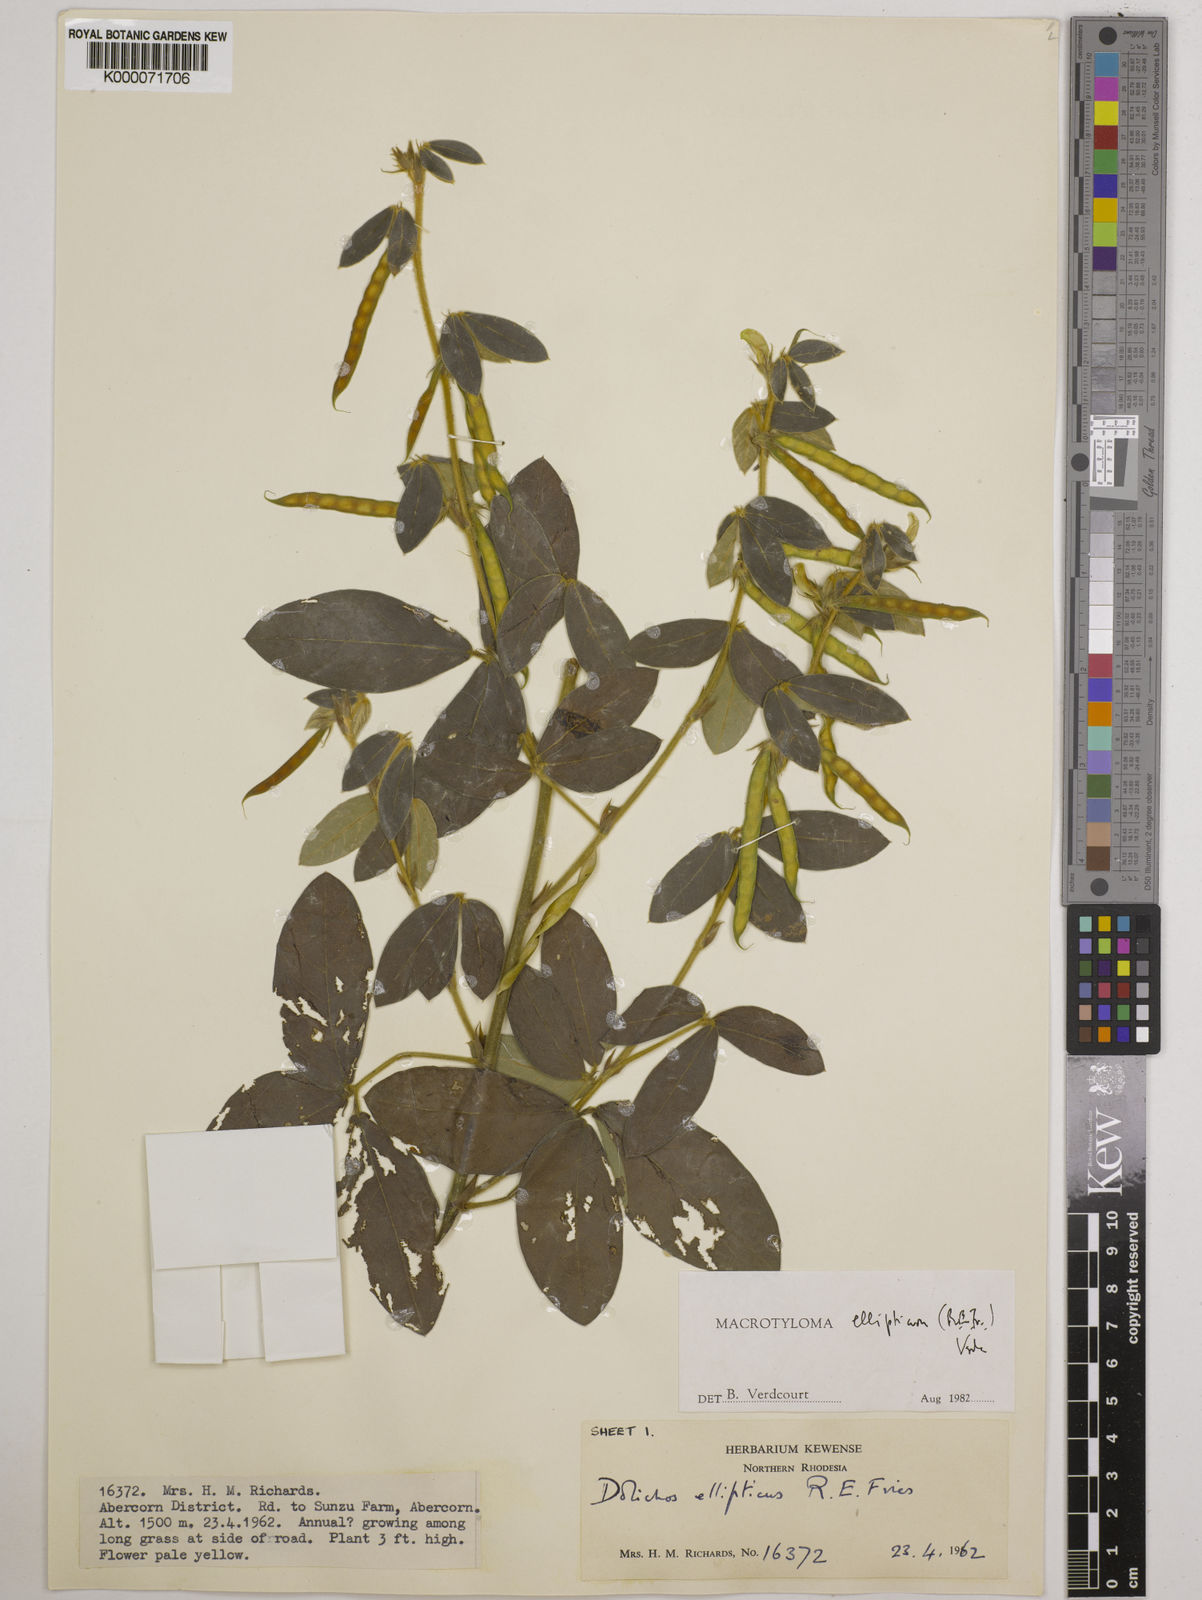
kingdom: Plantae
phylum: Tracheophyta
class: Magnoliopsida
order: Fabales
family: Fabaceae
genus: Macrotyloma
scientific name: Macrotyloma ellipticum
